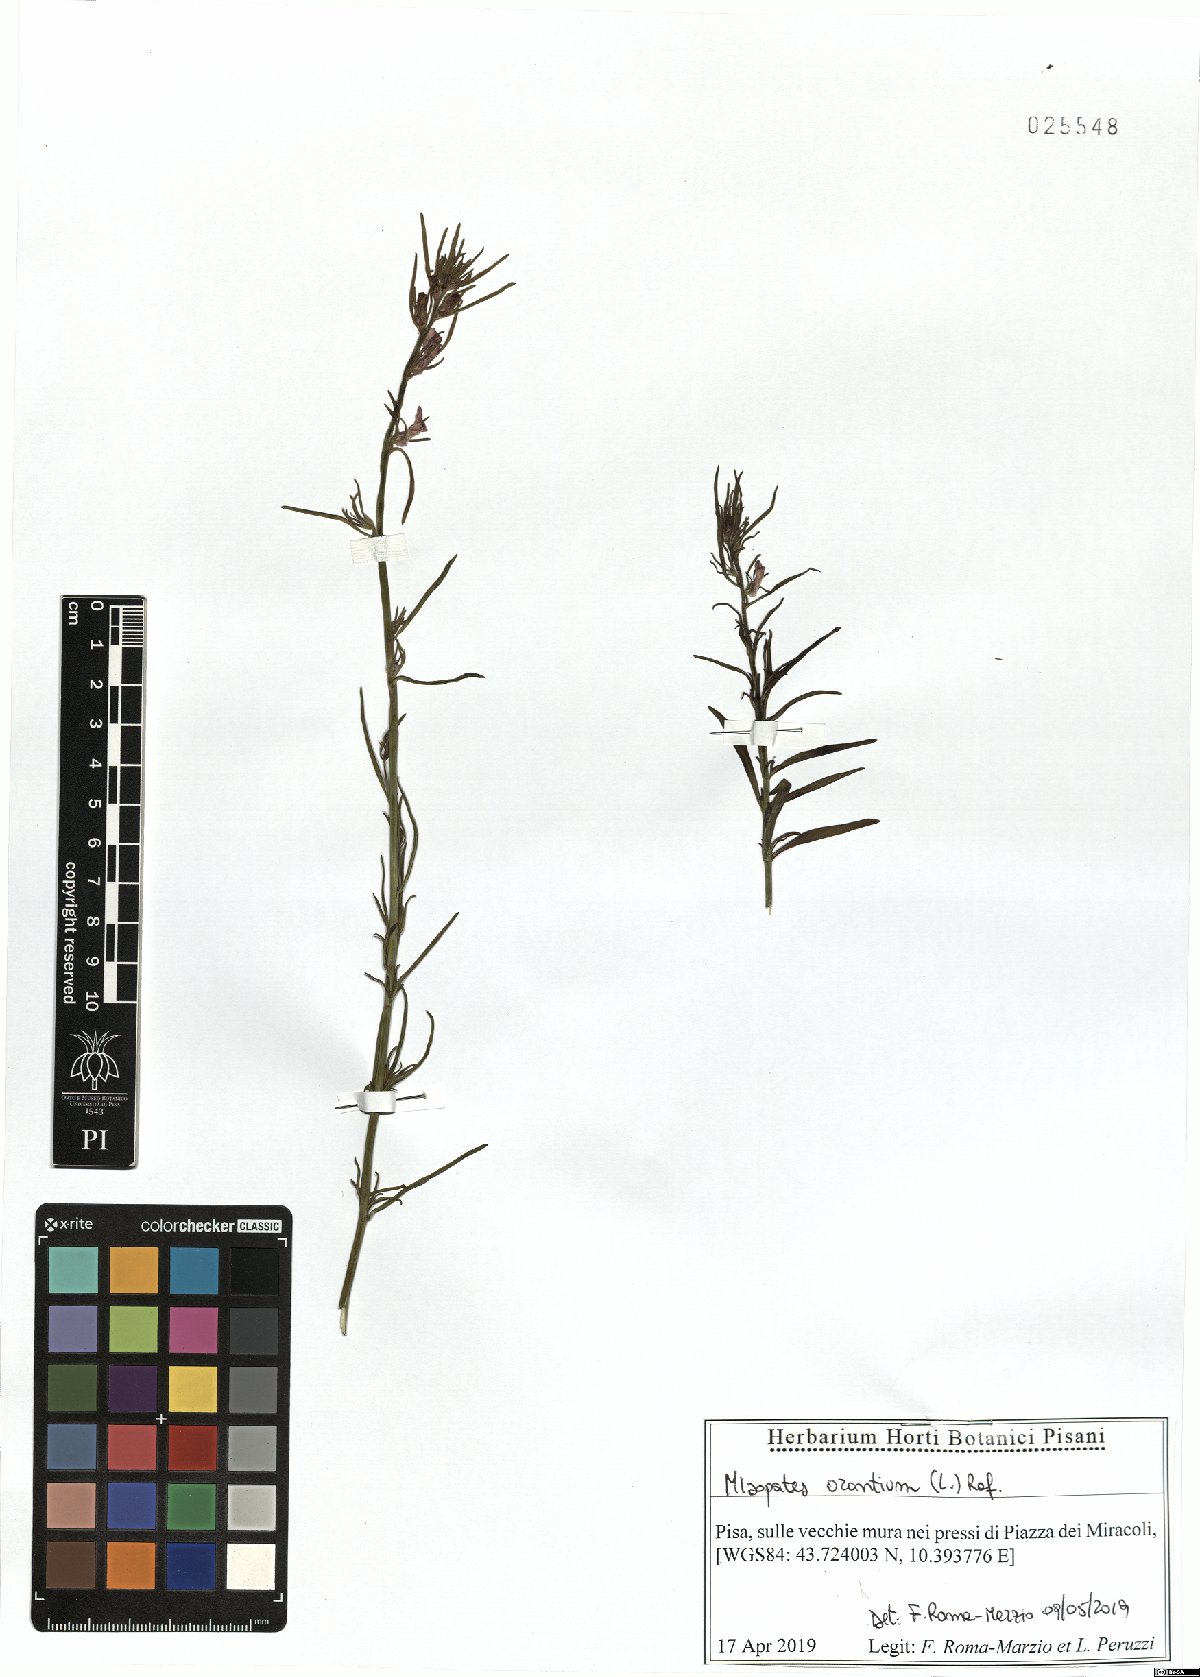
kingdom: Plantae
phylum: Tracheophyta
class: Magnoliopsida
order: Lamiales
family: Plantaginaceae
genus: Misopates
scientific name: Misopates orontium
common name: Weasel's-snout
